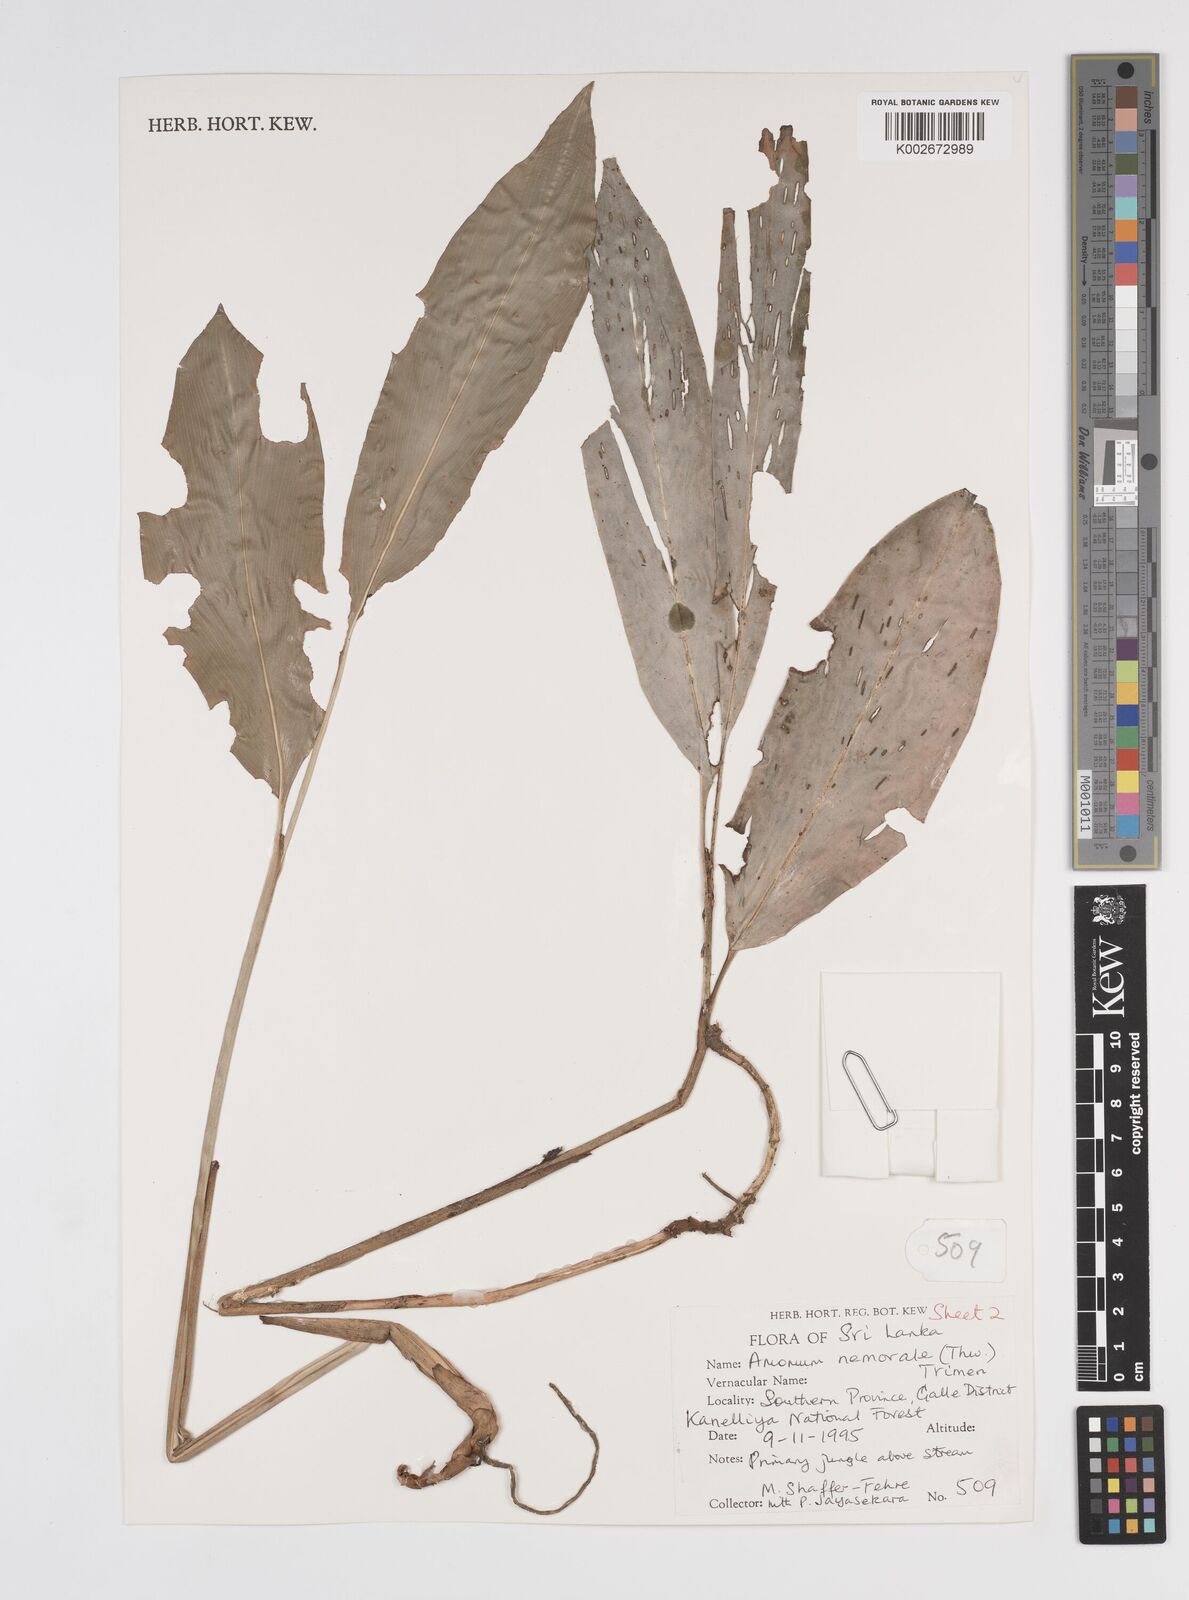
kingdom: Plantae
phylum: Tracheophyta
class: Liliopsida
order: Zingiberales
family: Zingiberaceae
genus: Amomum
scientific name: Amomum nemorale
